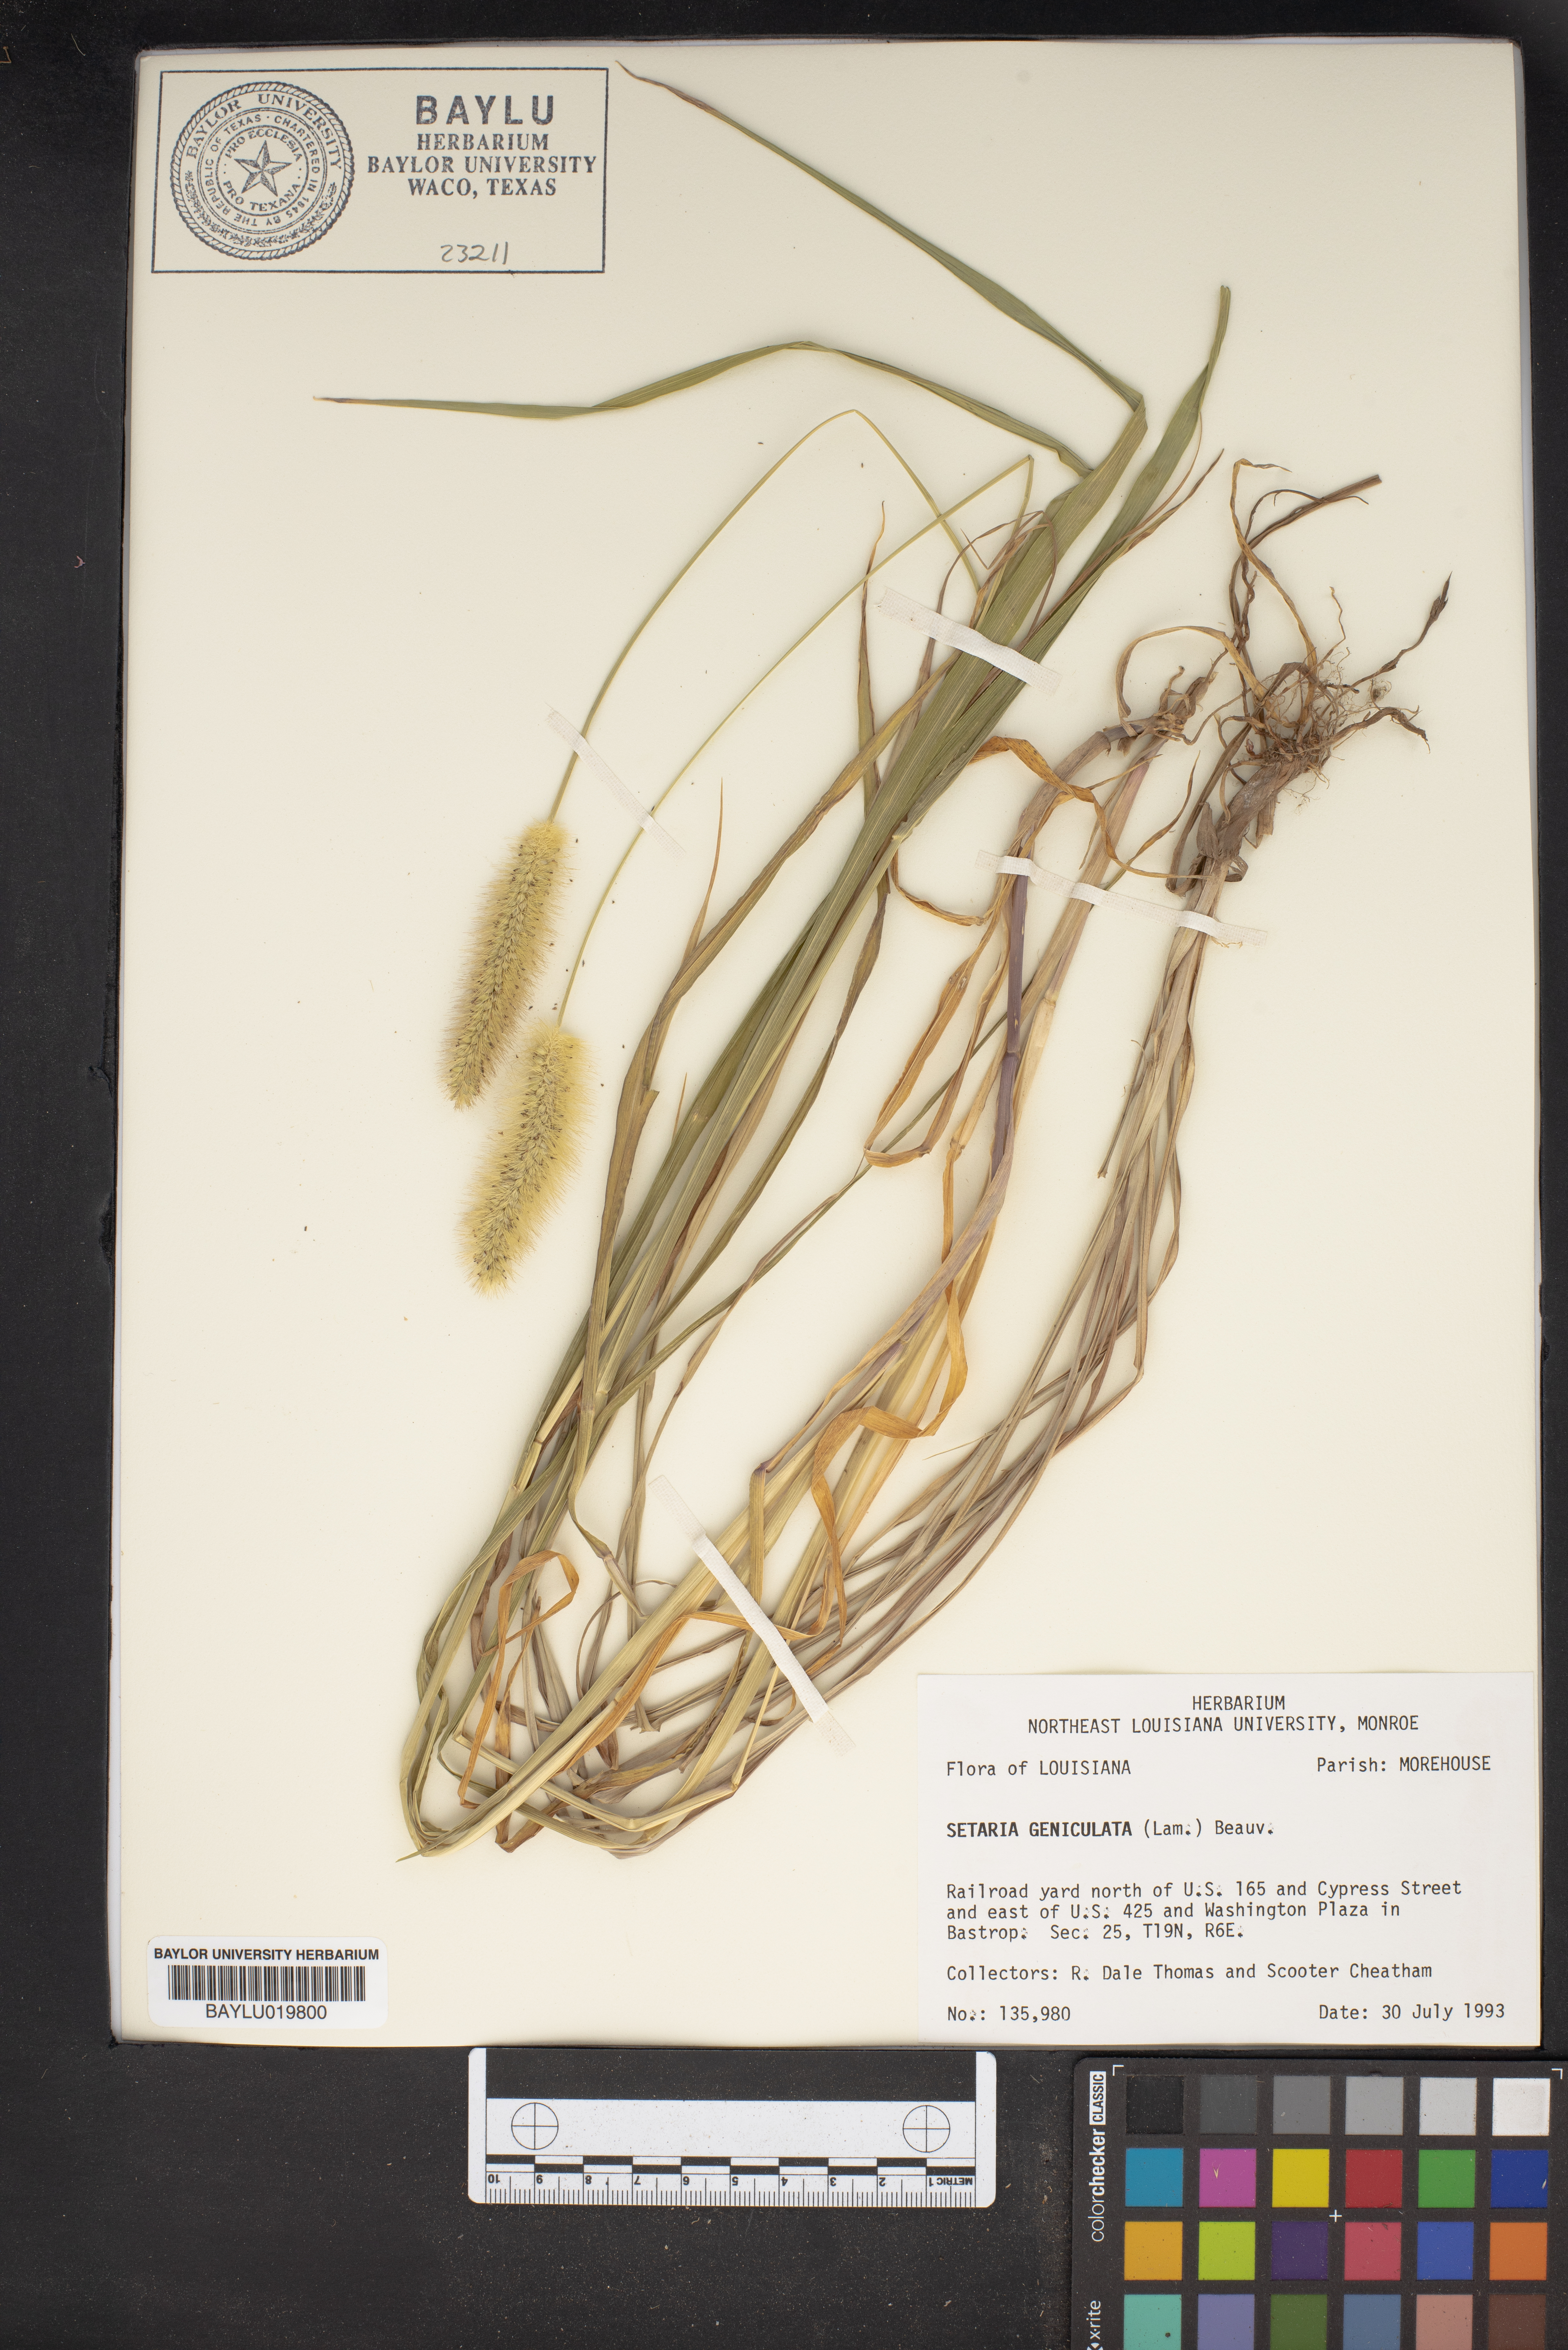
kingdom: Plantae
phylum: Tracheophyta
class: Liliopsida
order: Poales
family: Poaceae
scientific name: Poaceae
